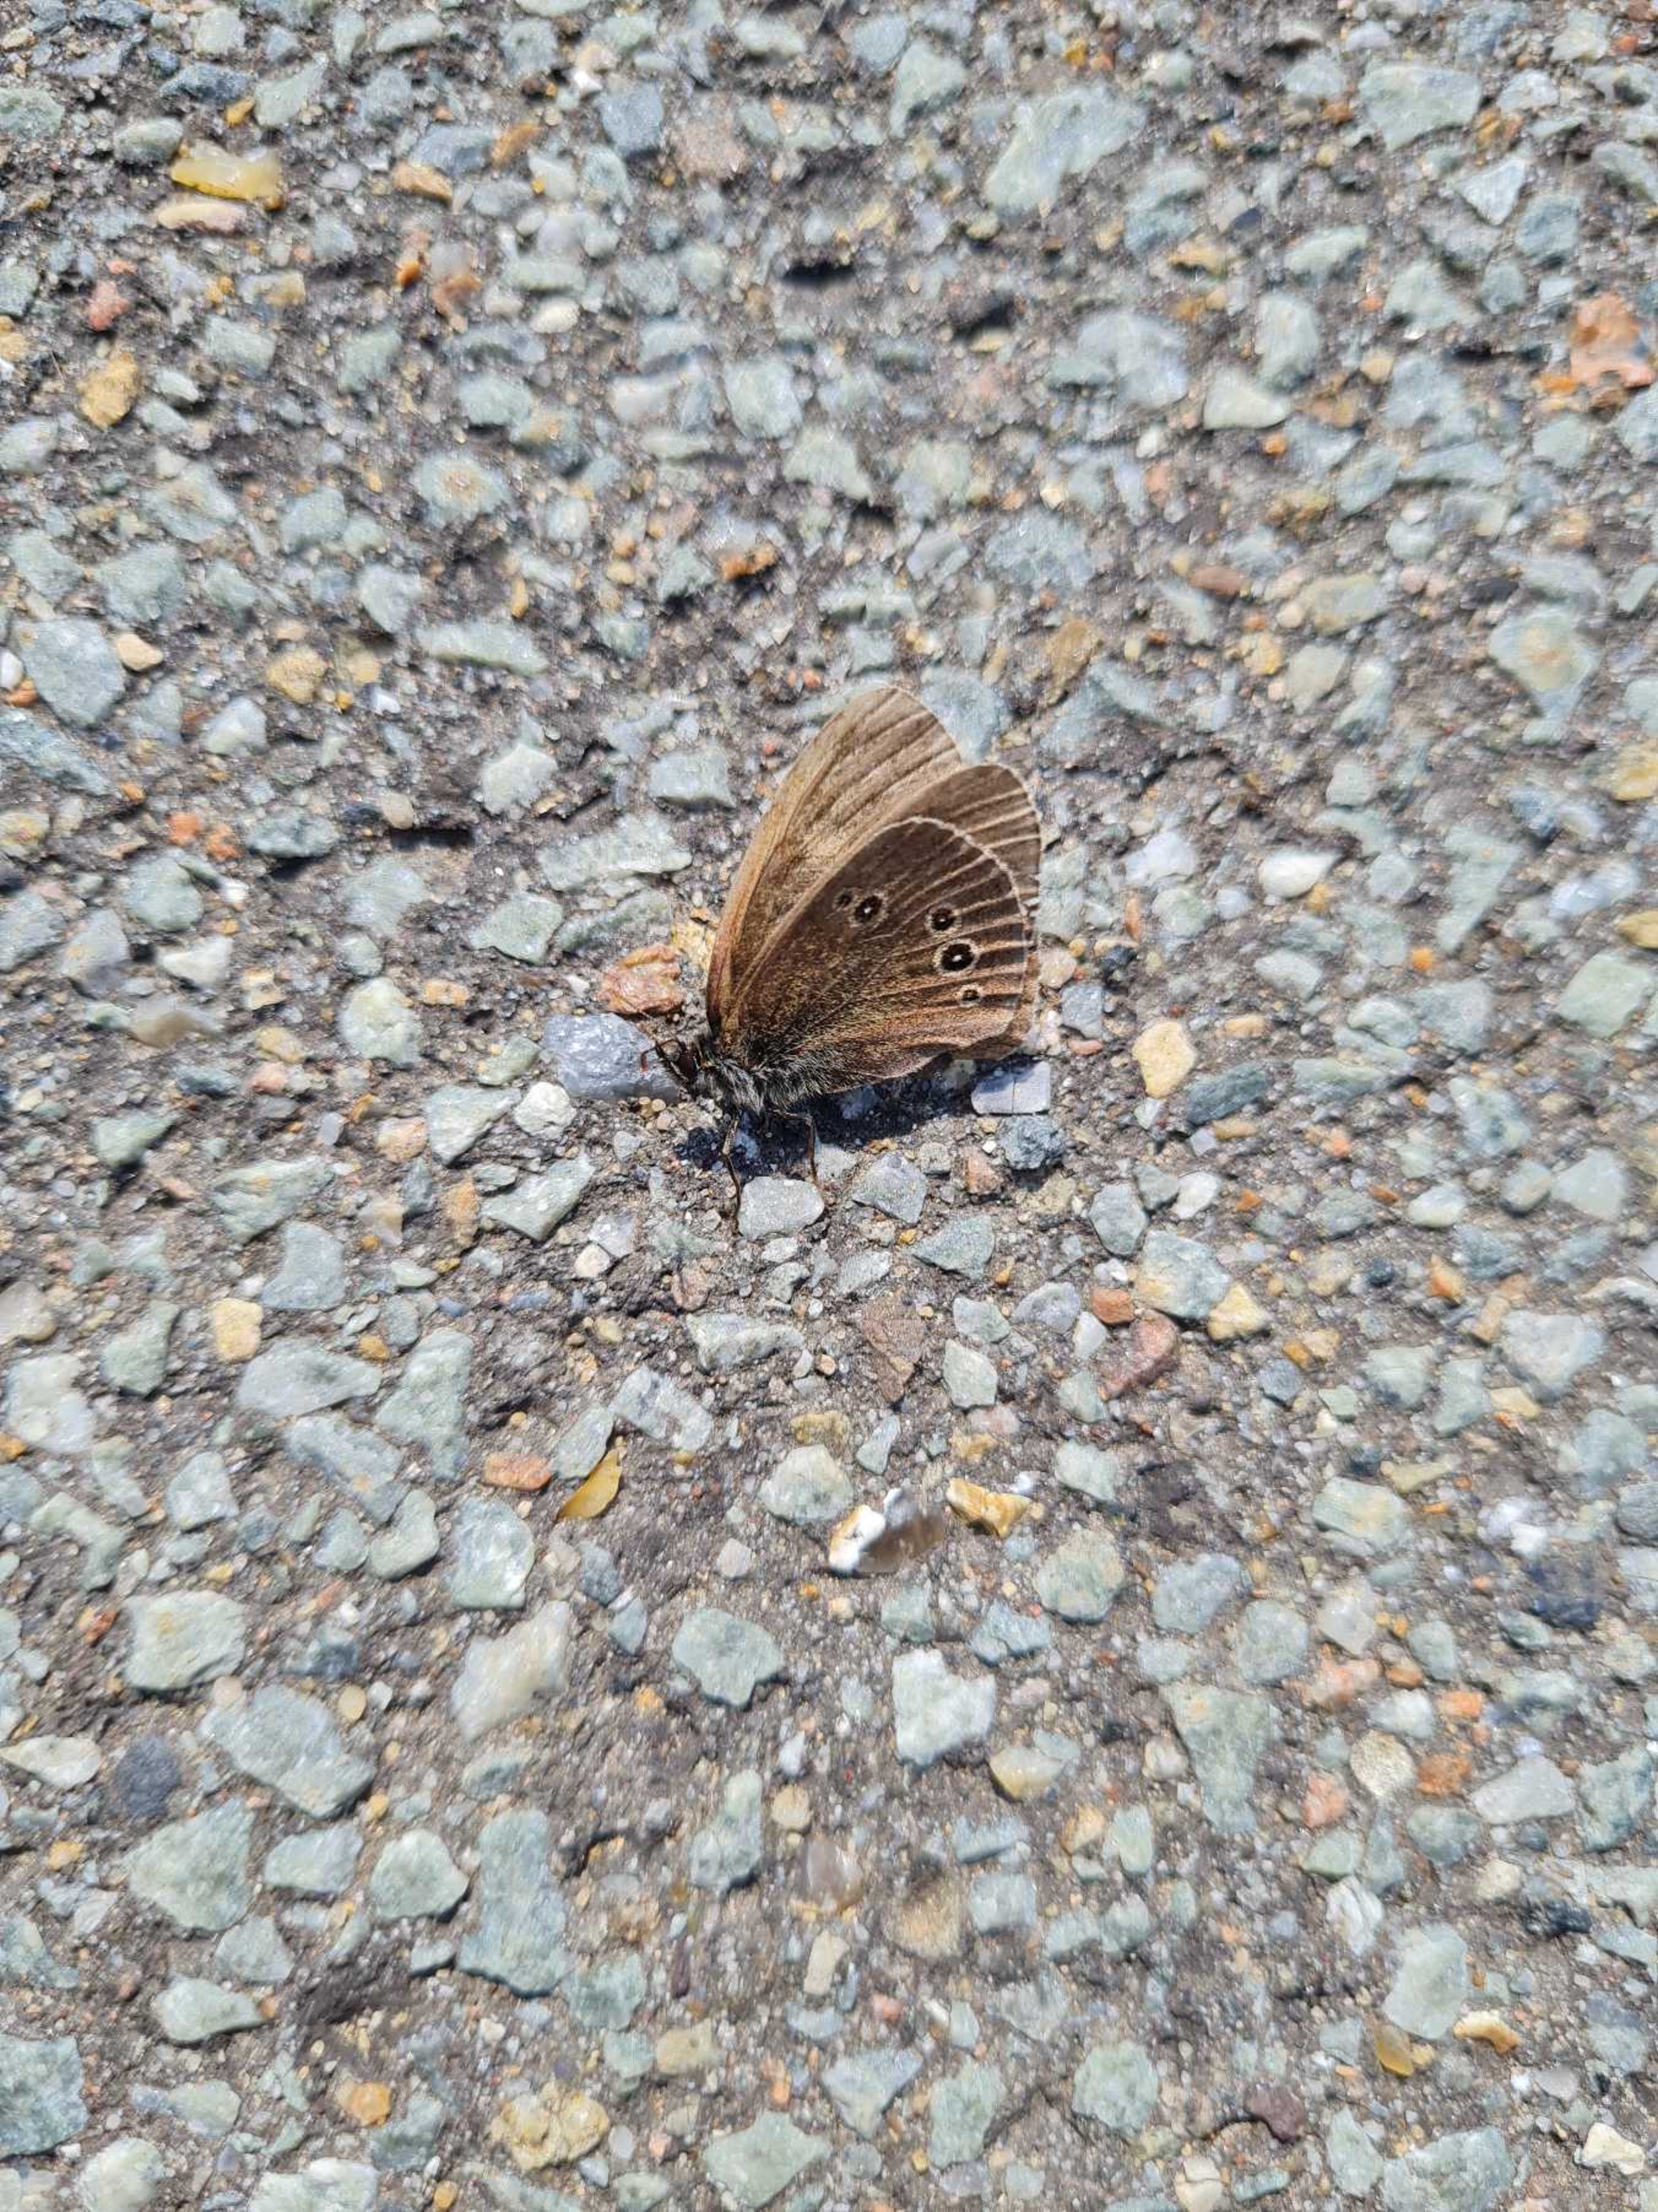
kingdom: Animalia
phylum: Arthropoda
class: Insecta
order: Lepidoptera
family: Nymphalidae
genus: Aphantopus
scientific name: Aphantopus hyperantus
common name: Engrandøje
